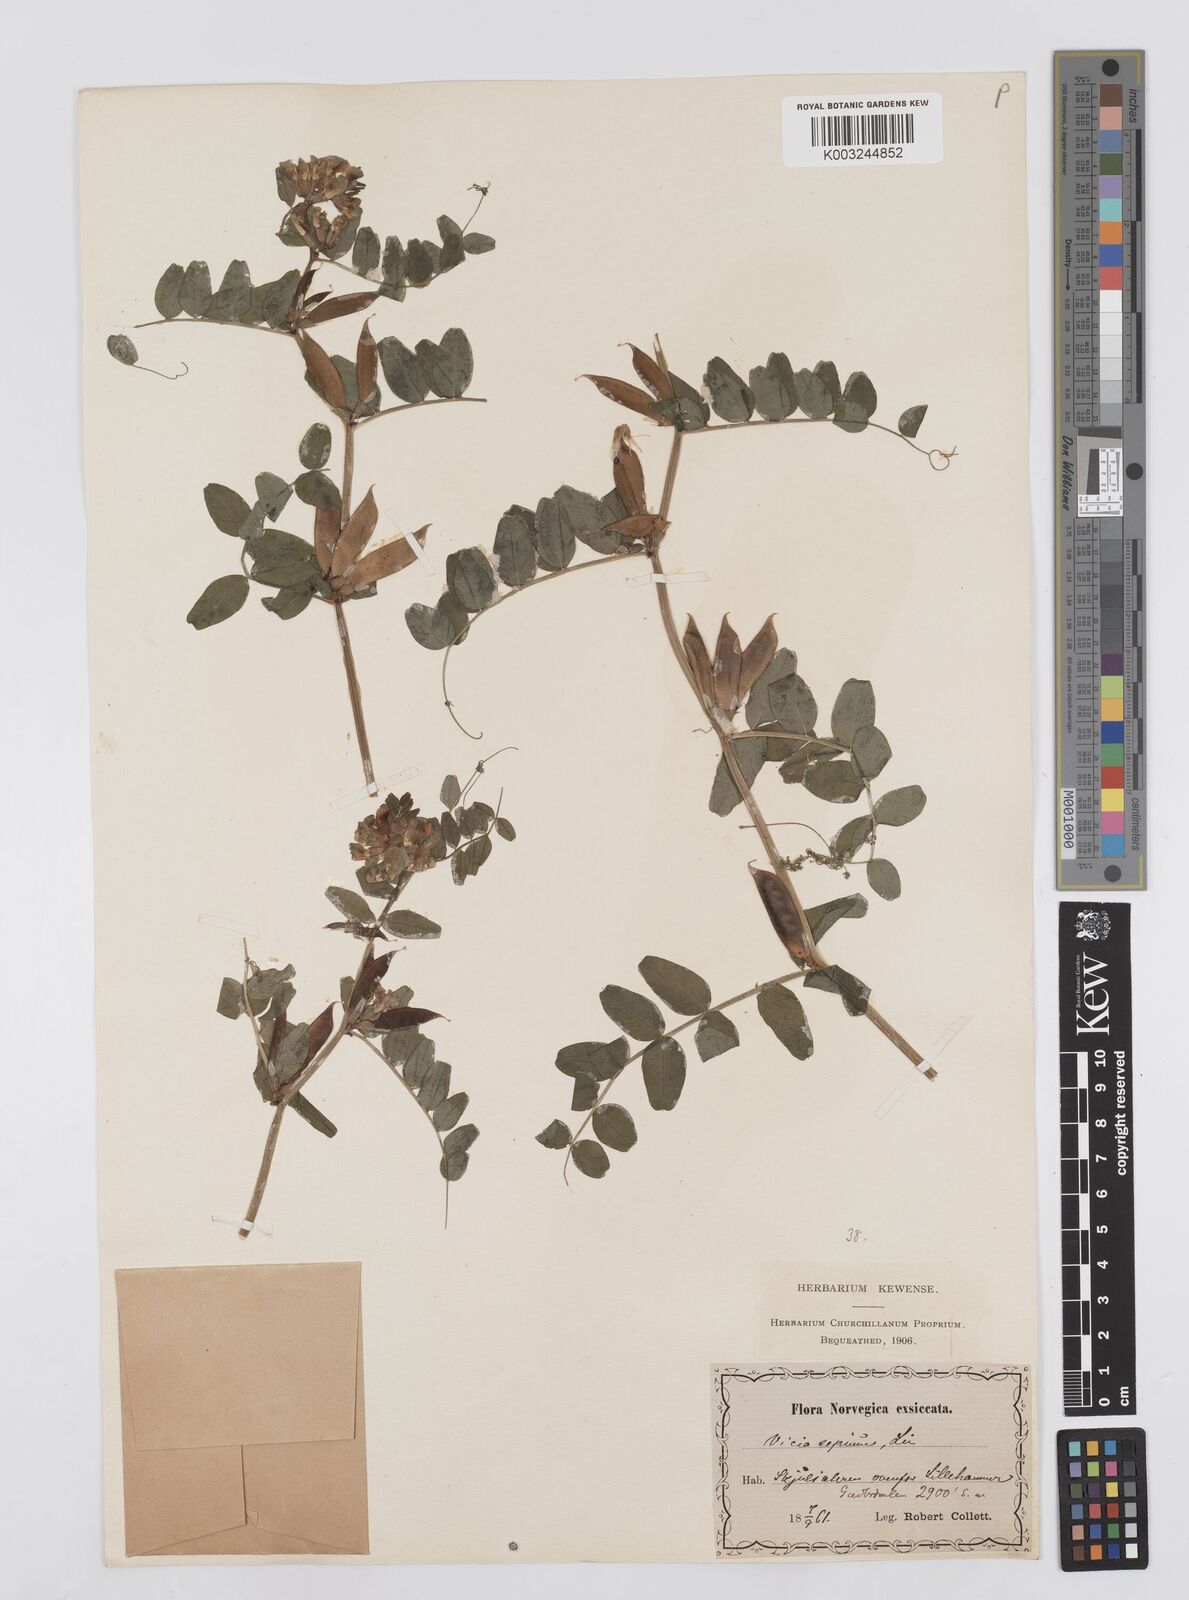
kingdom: Plantae
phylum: Tracheophyta
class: Magnoliopsida
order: Fabales
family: Fabaceae
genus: Vicia
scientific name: Vicia sepium
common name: Bush vetch
